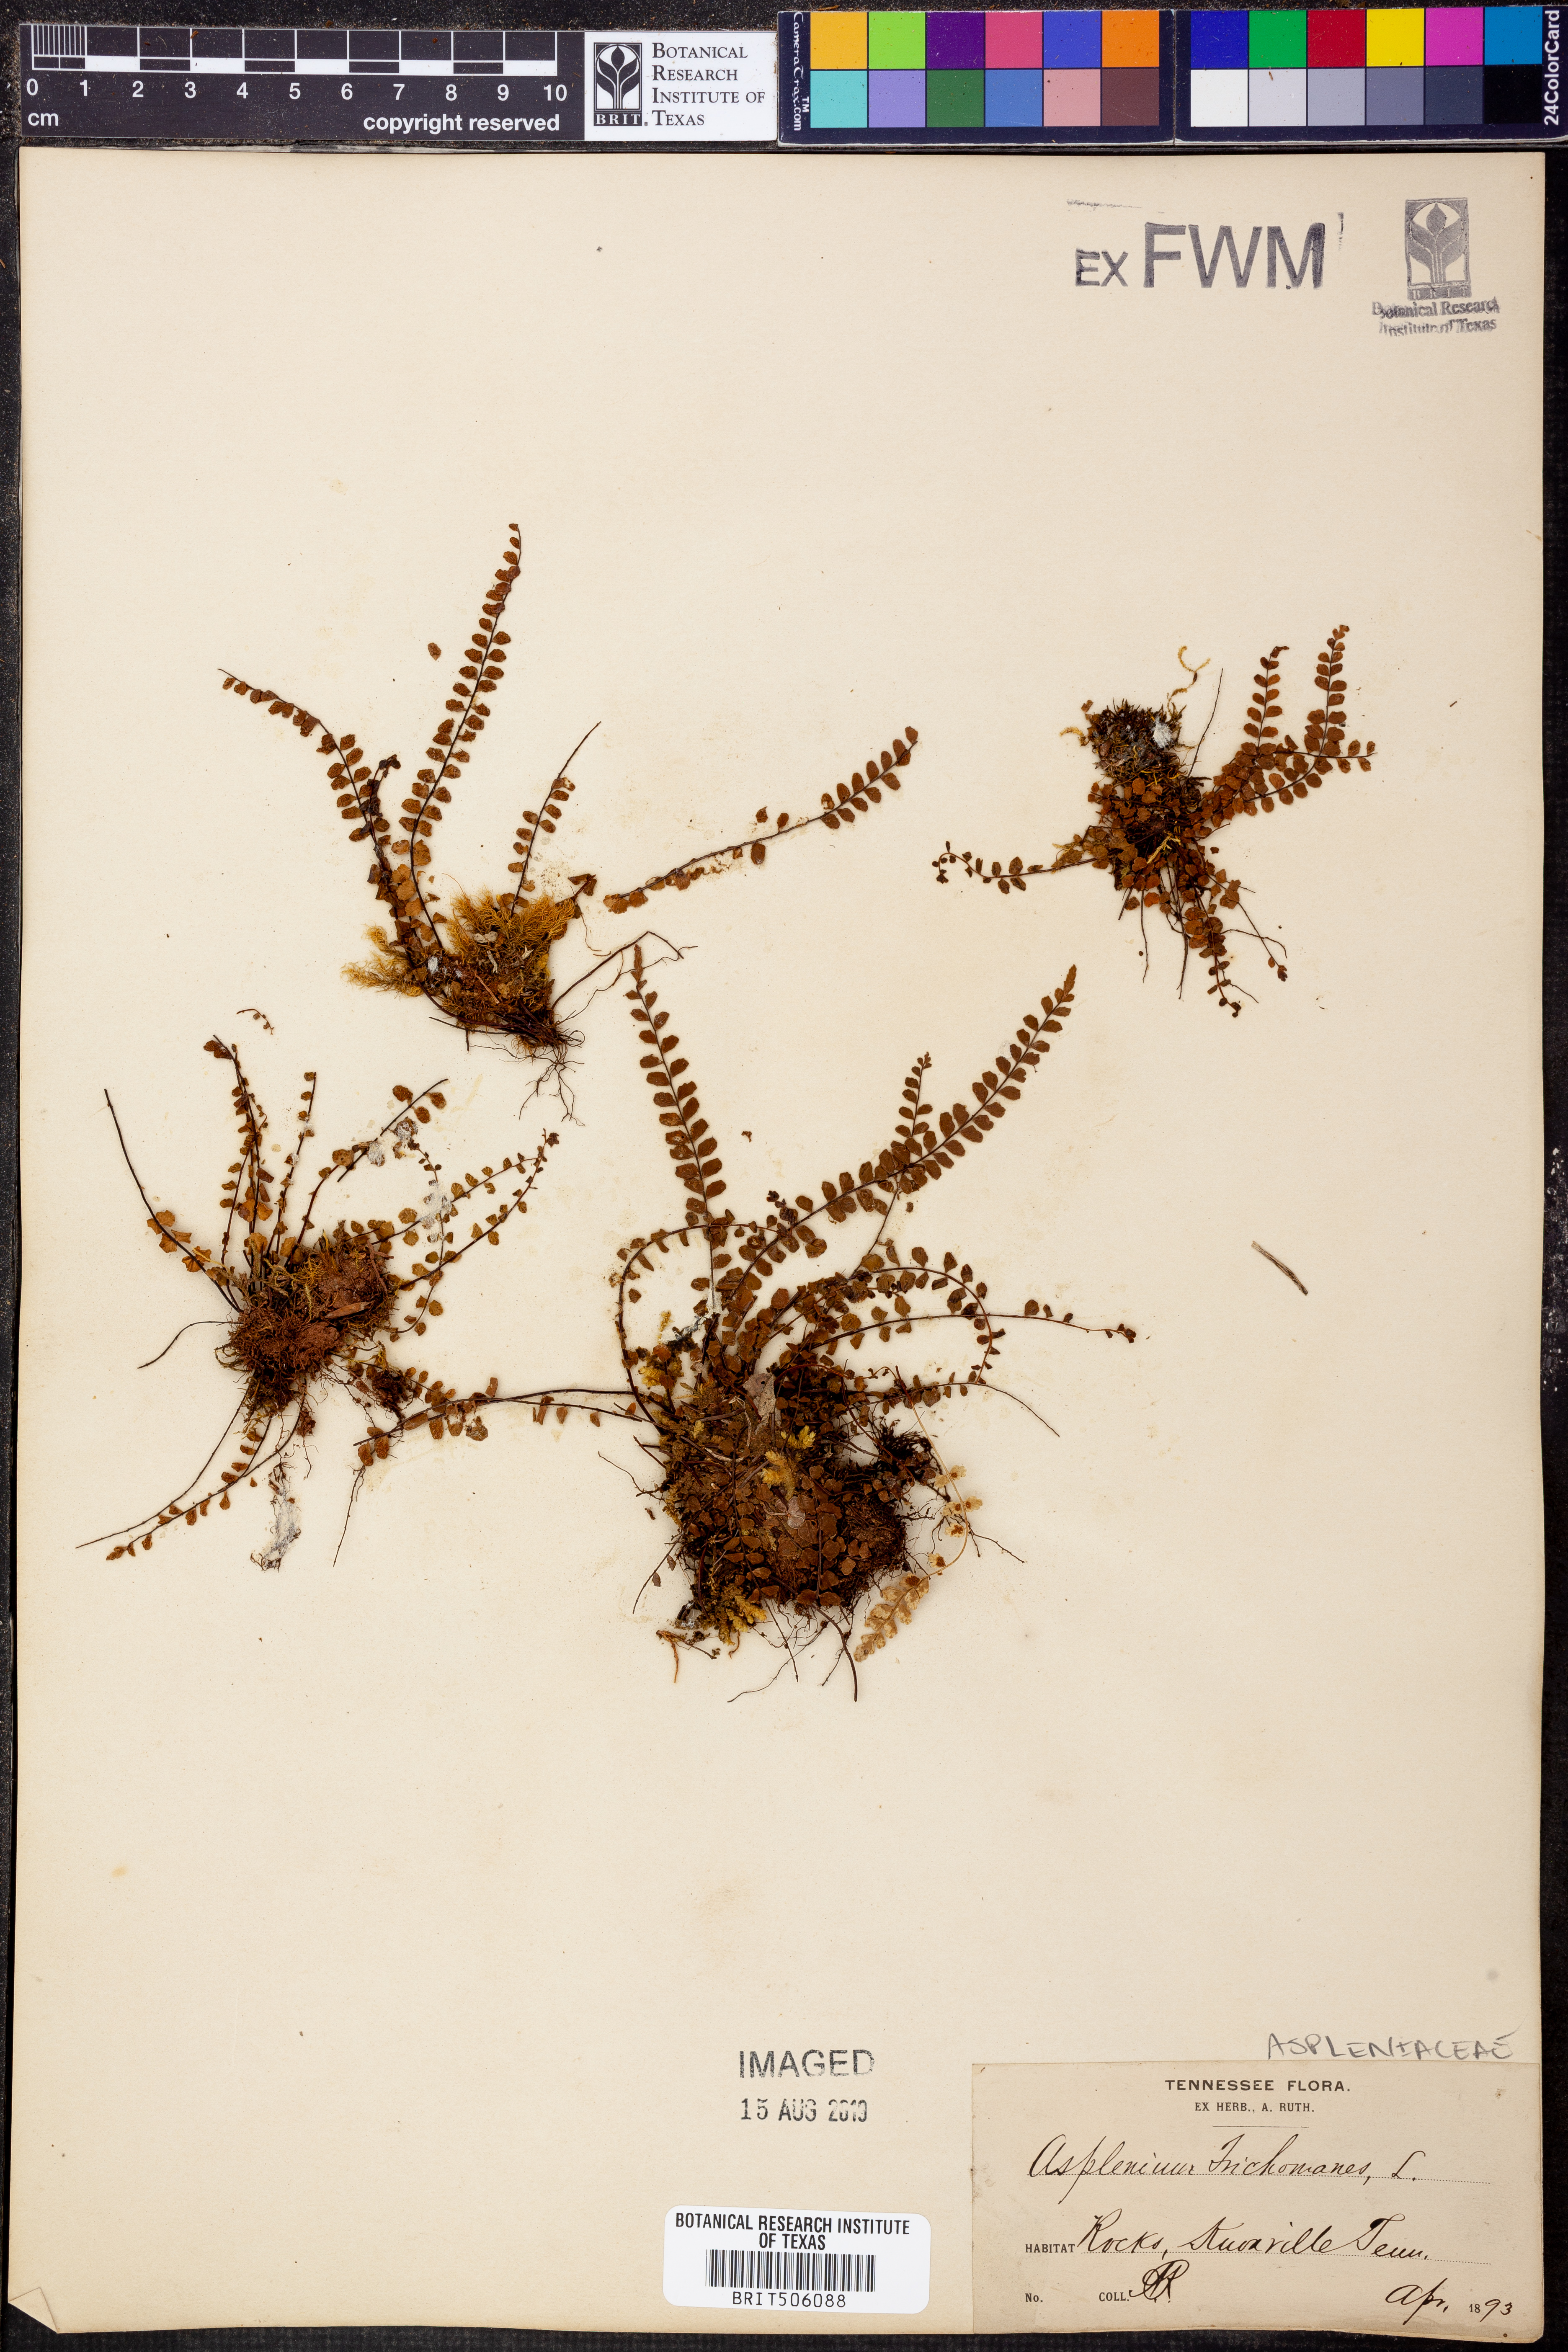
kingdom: Plantae
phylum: Tracheophyta
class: Polypodiopsida
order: Polypodiales
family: Aspleniaceae
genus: Asplenium
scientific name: Asplenium trichomanes
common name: Maidenhair spleenwort
